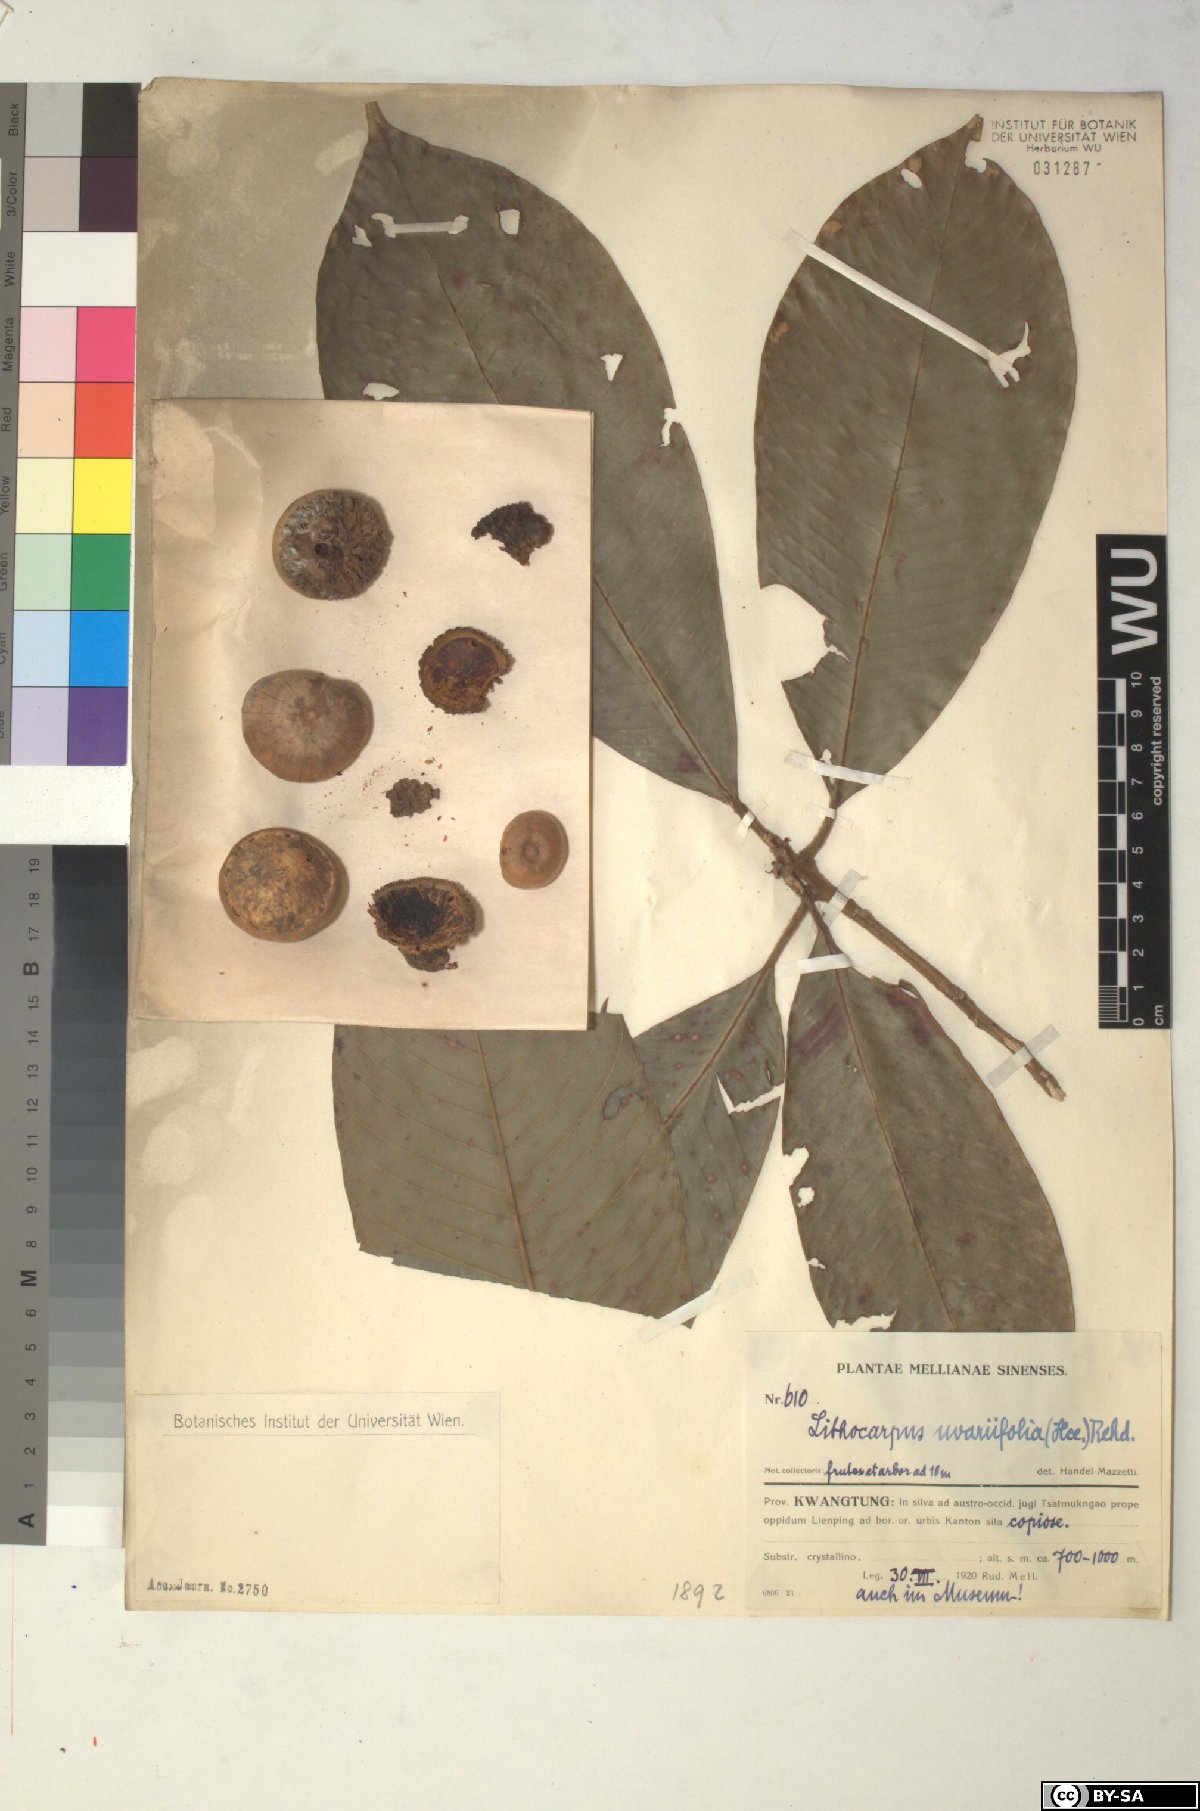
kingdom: Plantae
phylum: Tracheophyta
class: Magnoliopsida
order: Fagales
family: Fagaceae
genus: Lithocarpus
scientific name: Lithocarpus uvariifolius
